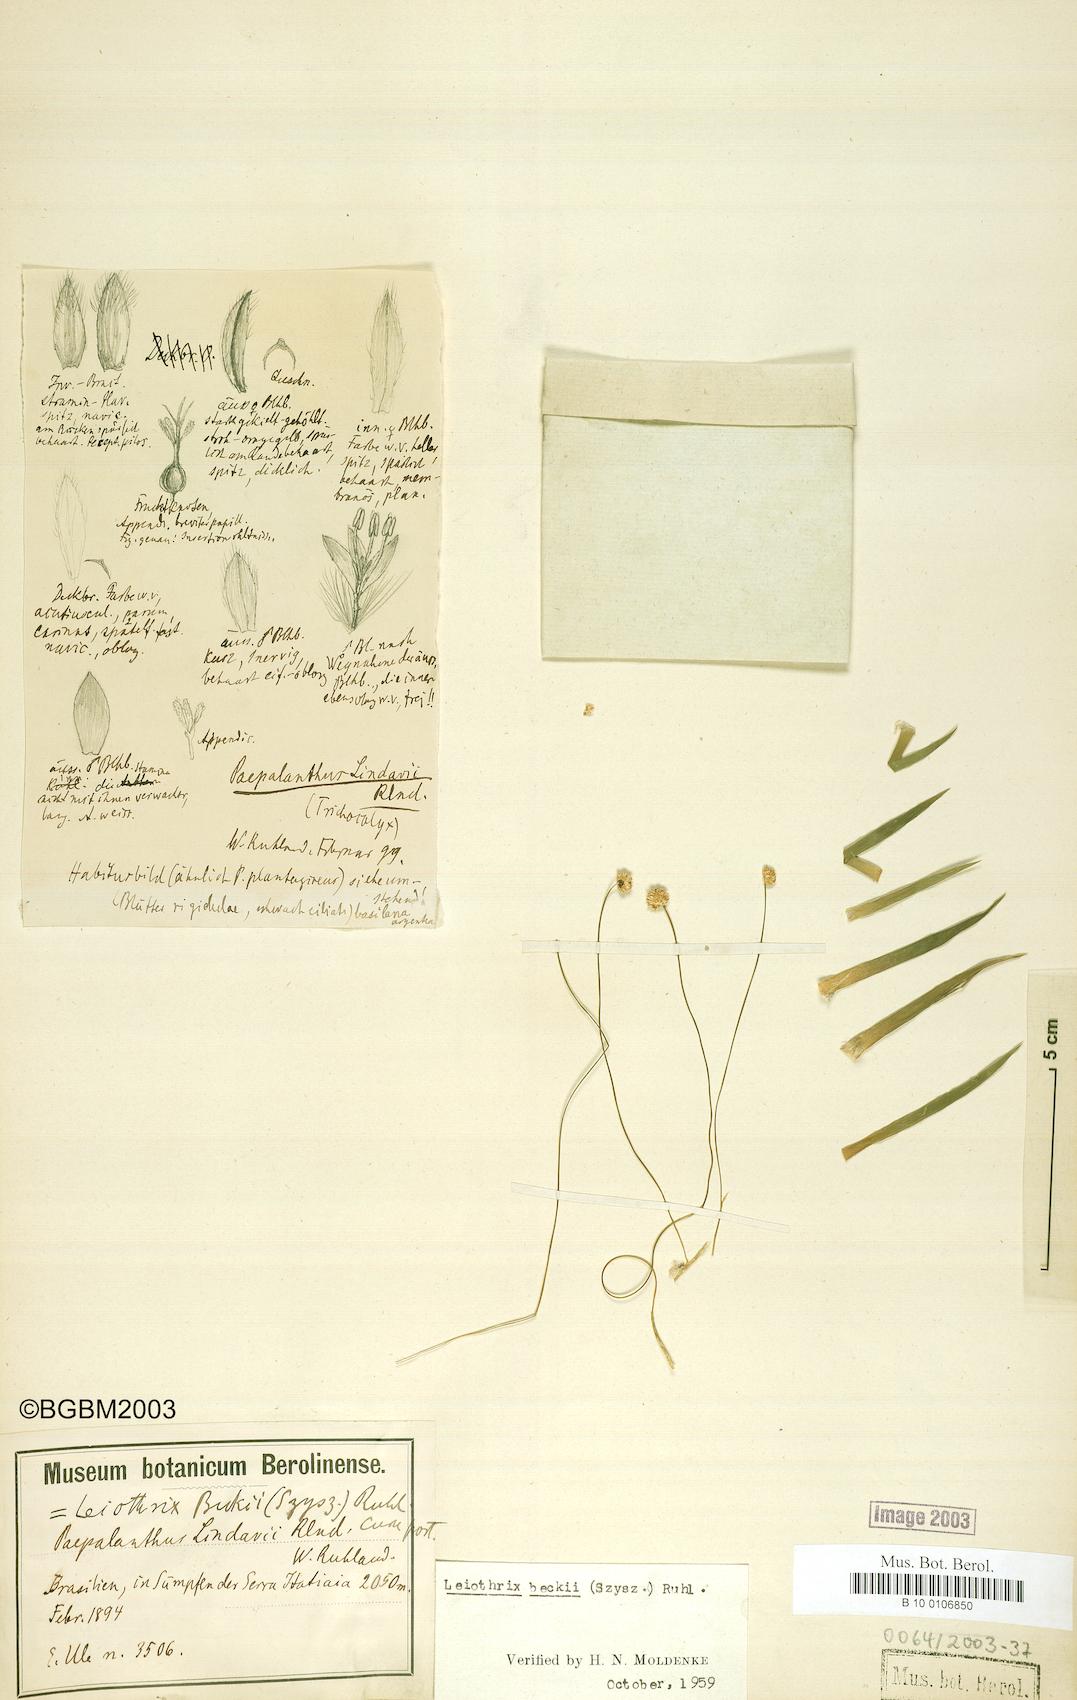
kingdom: Plantae
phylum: Tracheophyta
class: Liliopsida
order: Poales
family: Eriocaulaceae
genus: Leiothrix
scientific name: Leiothrix beckii
